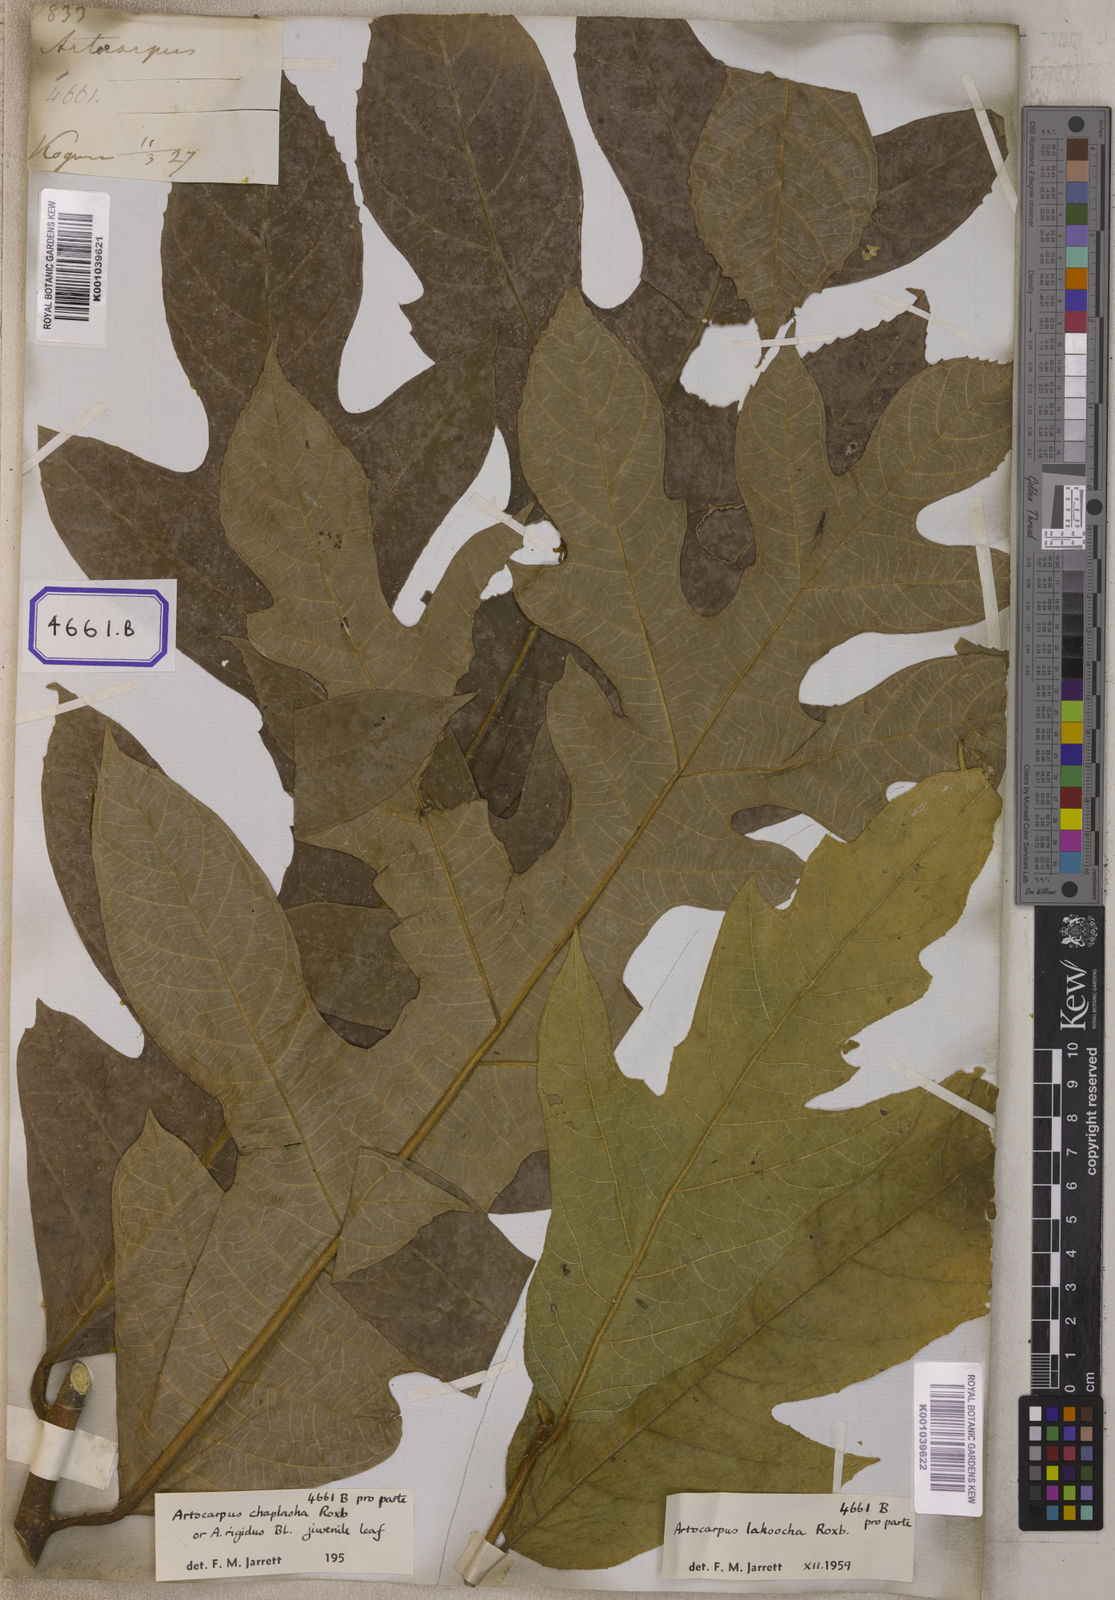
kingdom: Plantae
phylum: Tracheophyta
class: Magnoliopsida
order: Rosales
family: Moraceae
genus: Artocarpus
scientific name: Artocarpus lacucha
